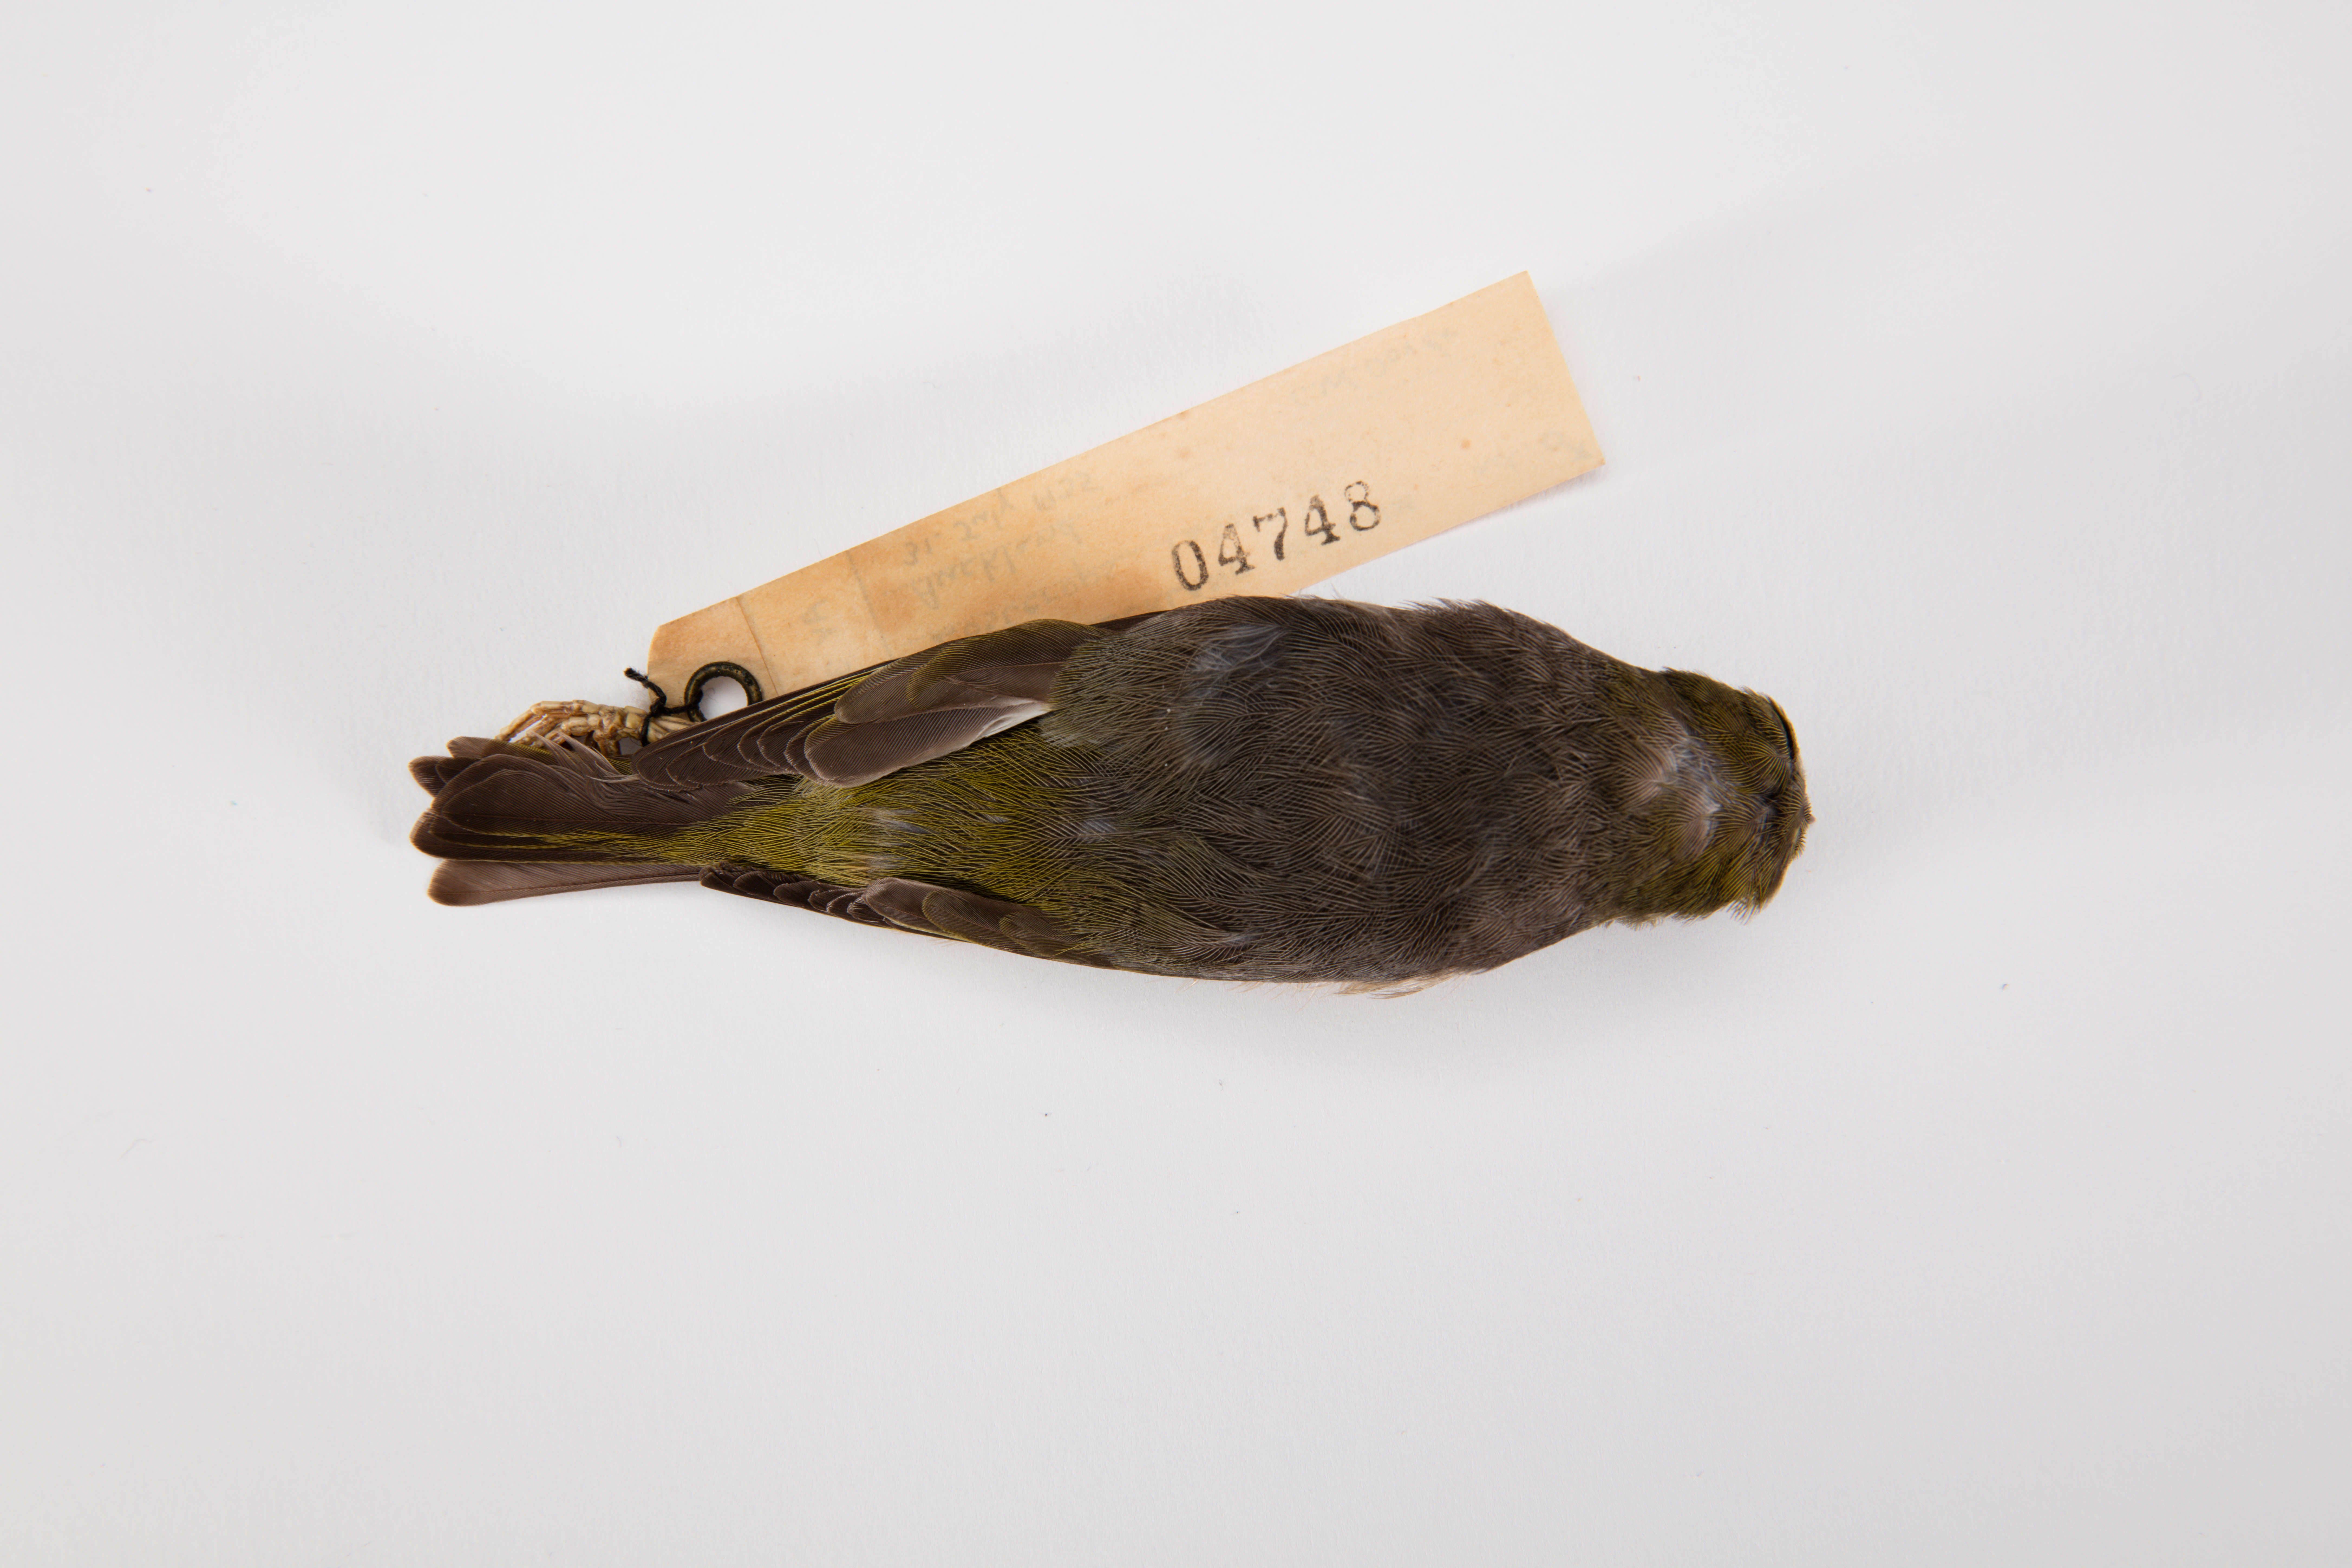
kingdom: Animalia
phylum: Chordata
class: Aves
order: Passeriformes
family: Zosteropidae
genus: Zosterops
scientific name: Zosterops lateralis
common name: Silvereye
